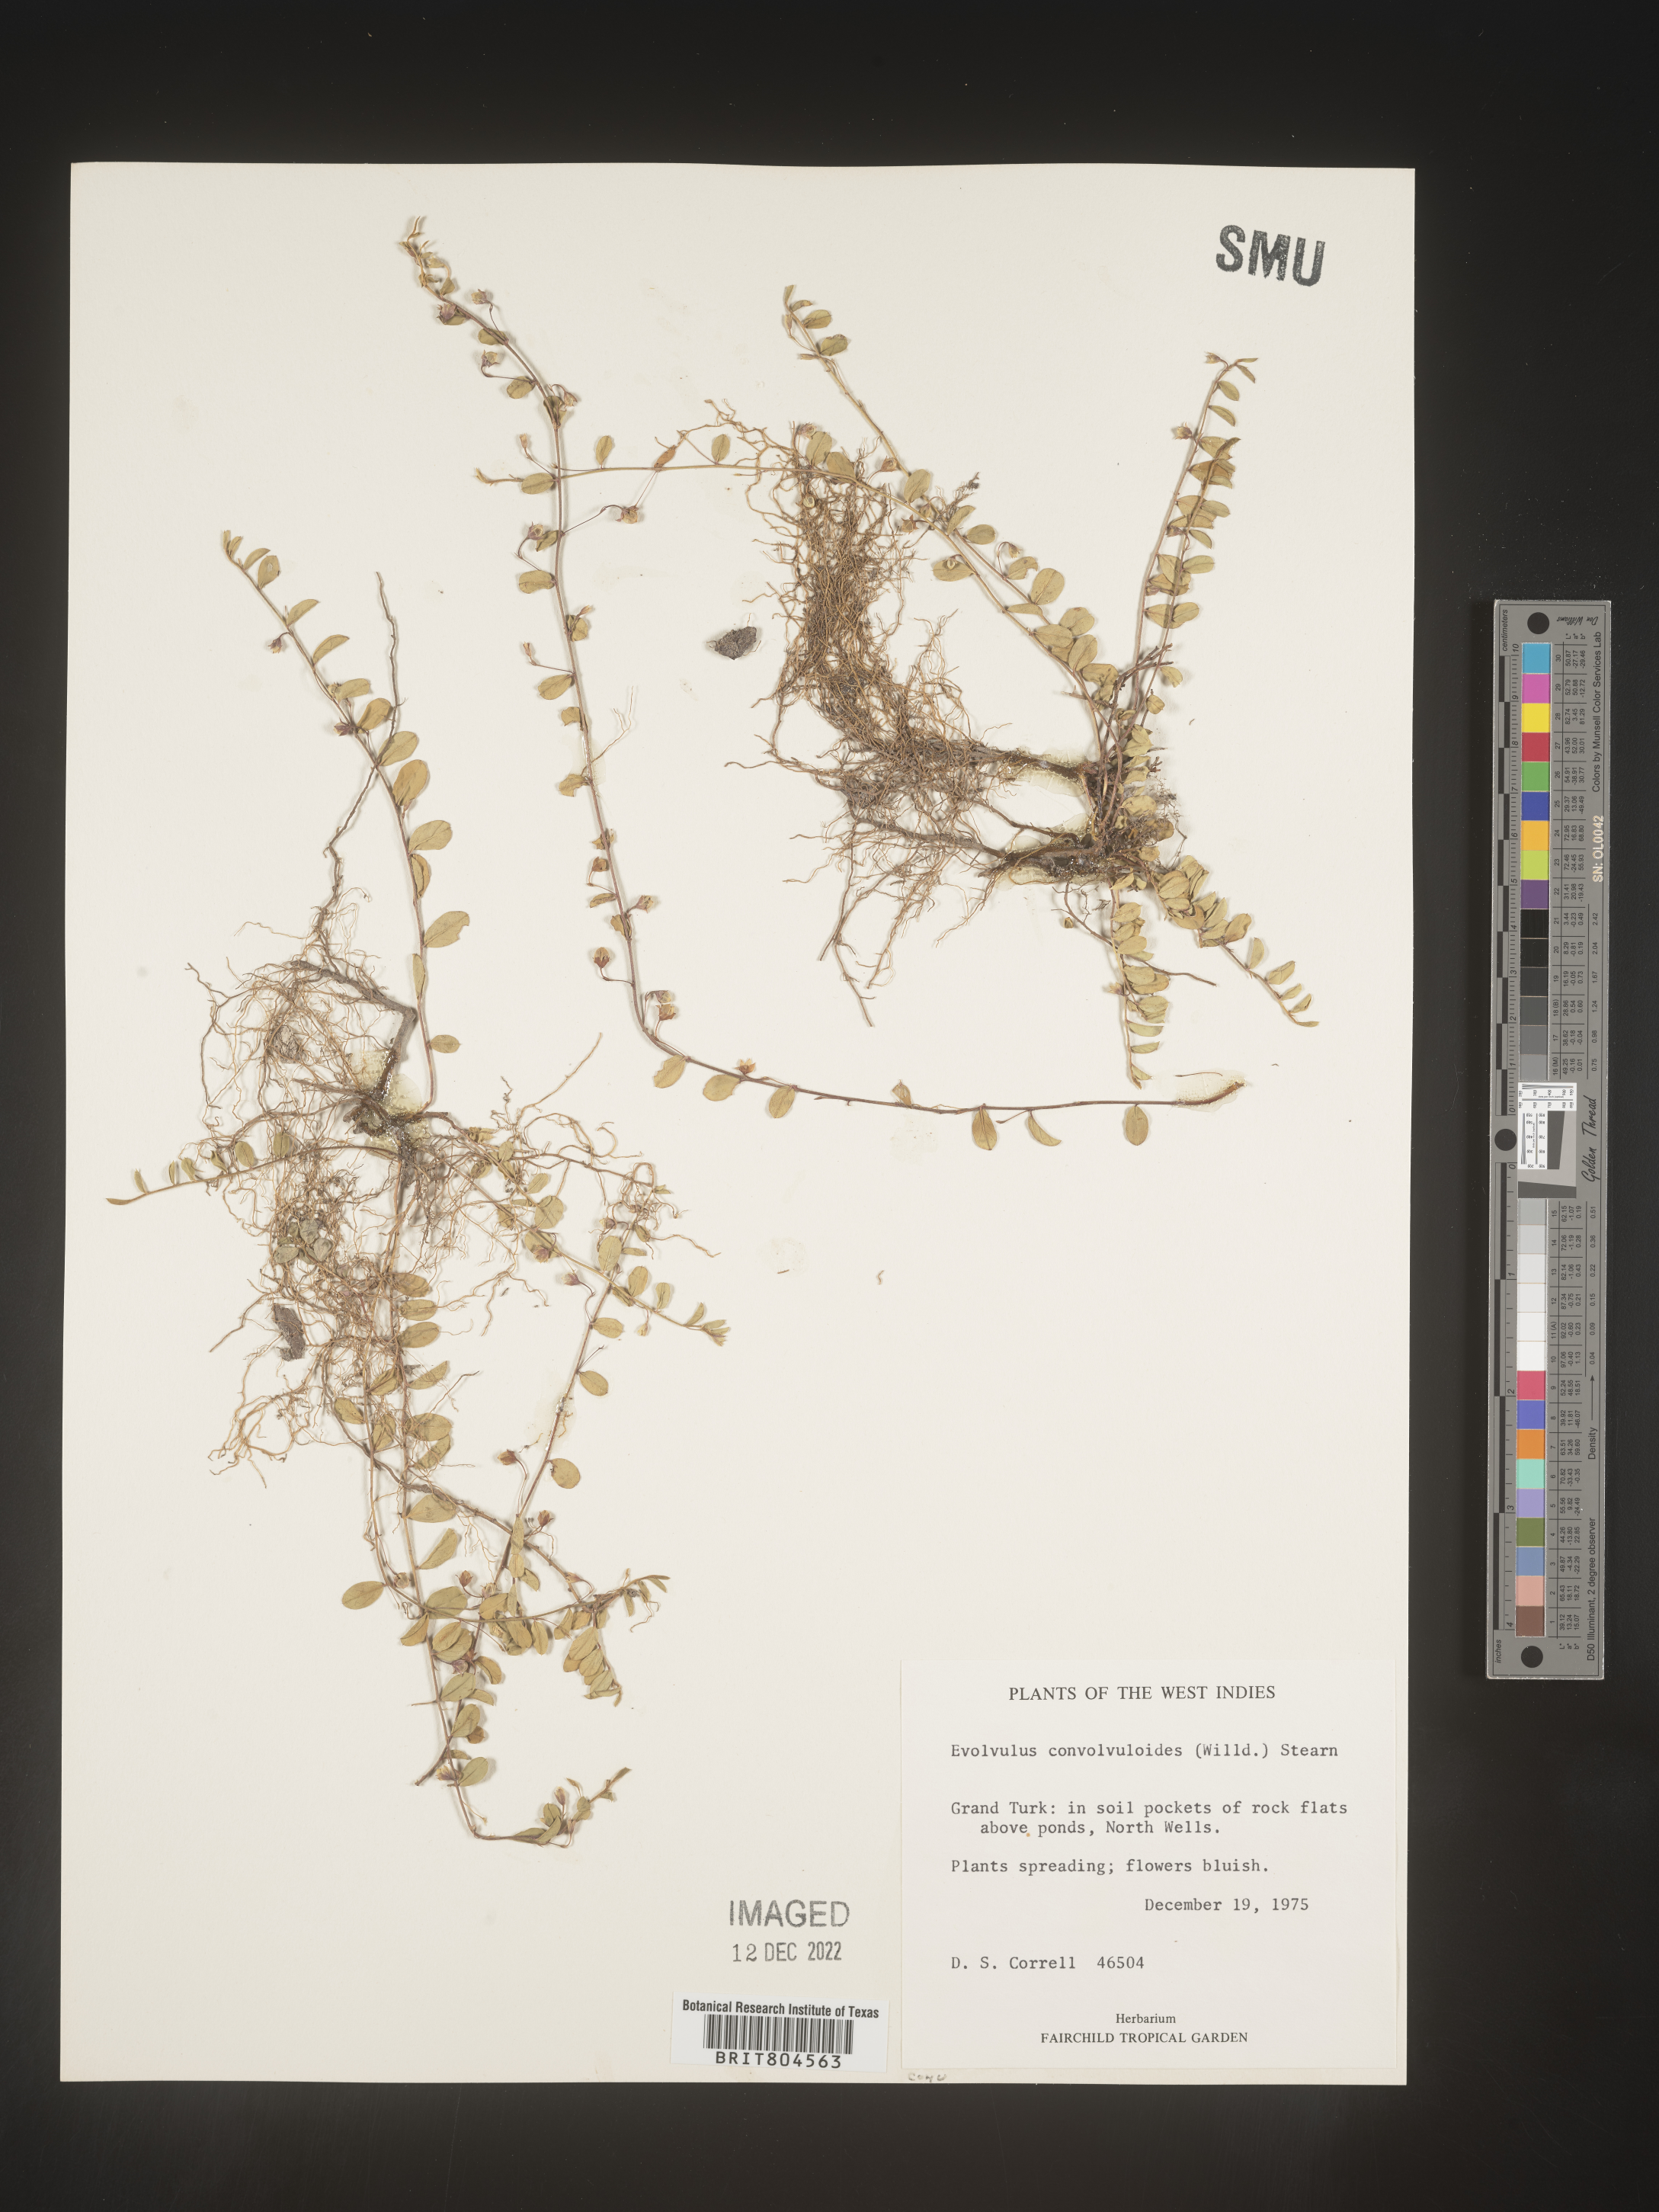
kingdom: Plantae
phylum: Tracheophyta
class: Magnoliopsida
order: Solanales
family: Convolvulaceae
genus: Evolvulus
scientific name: Evolvulus
